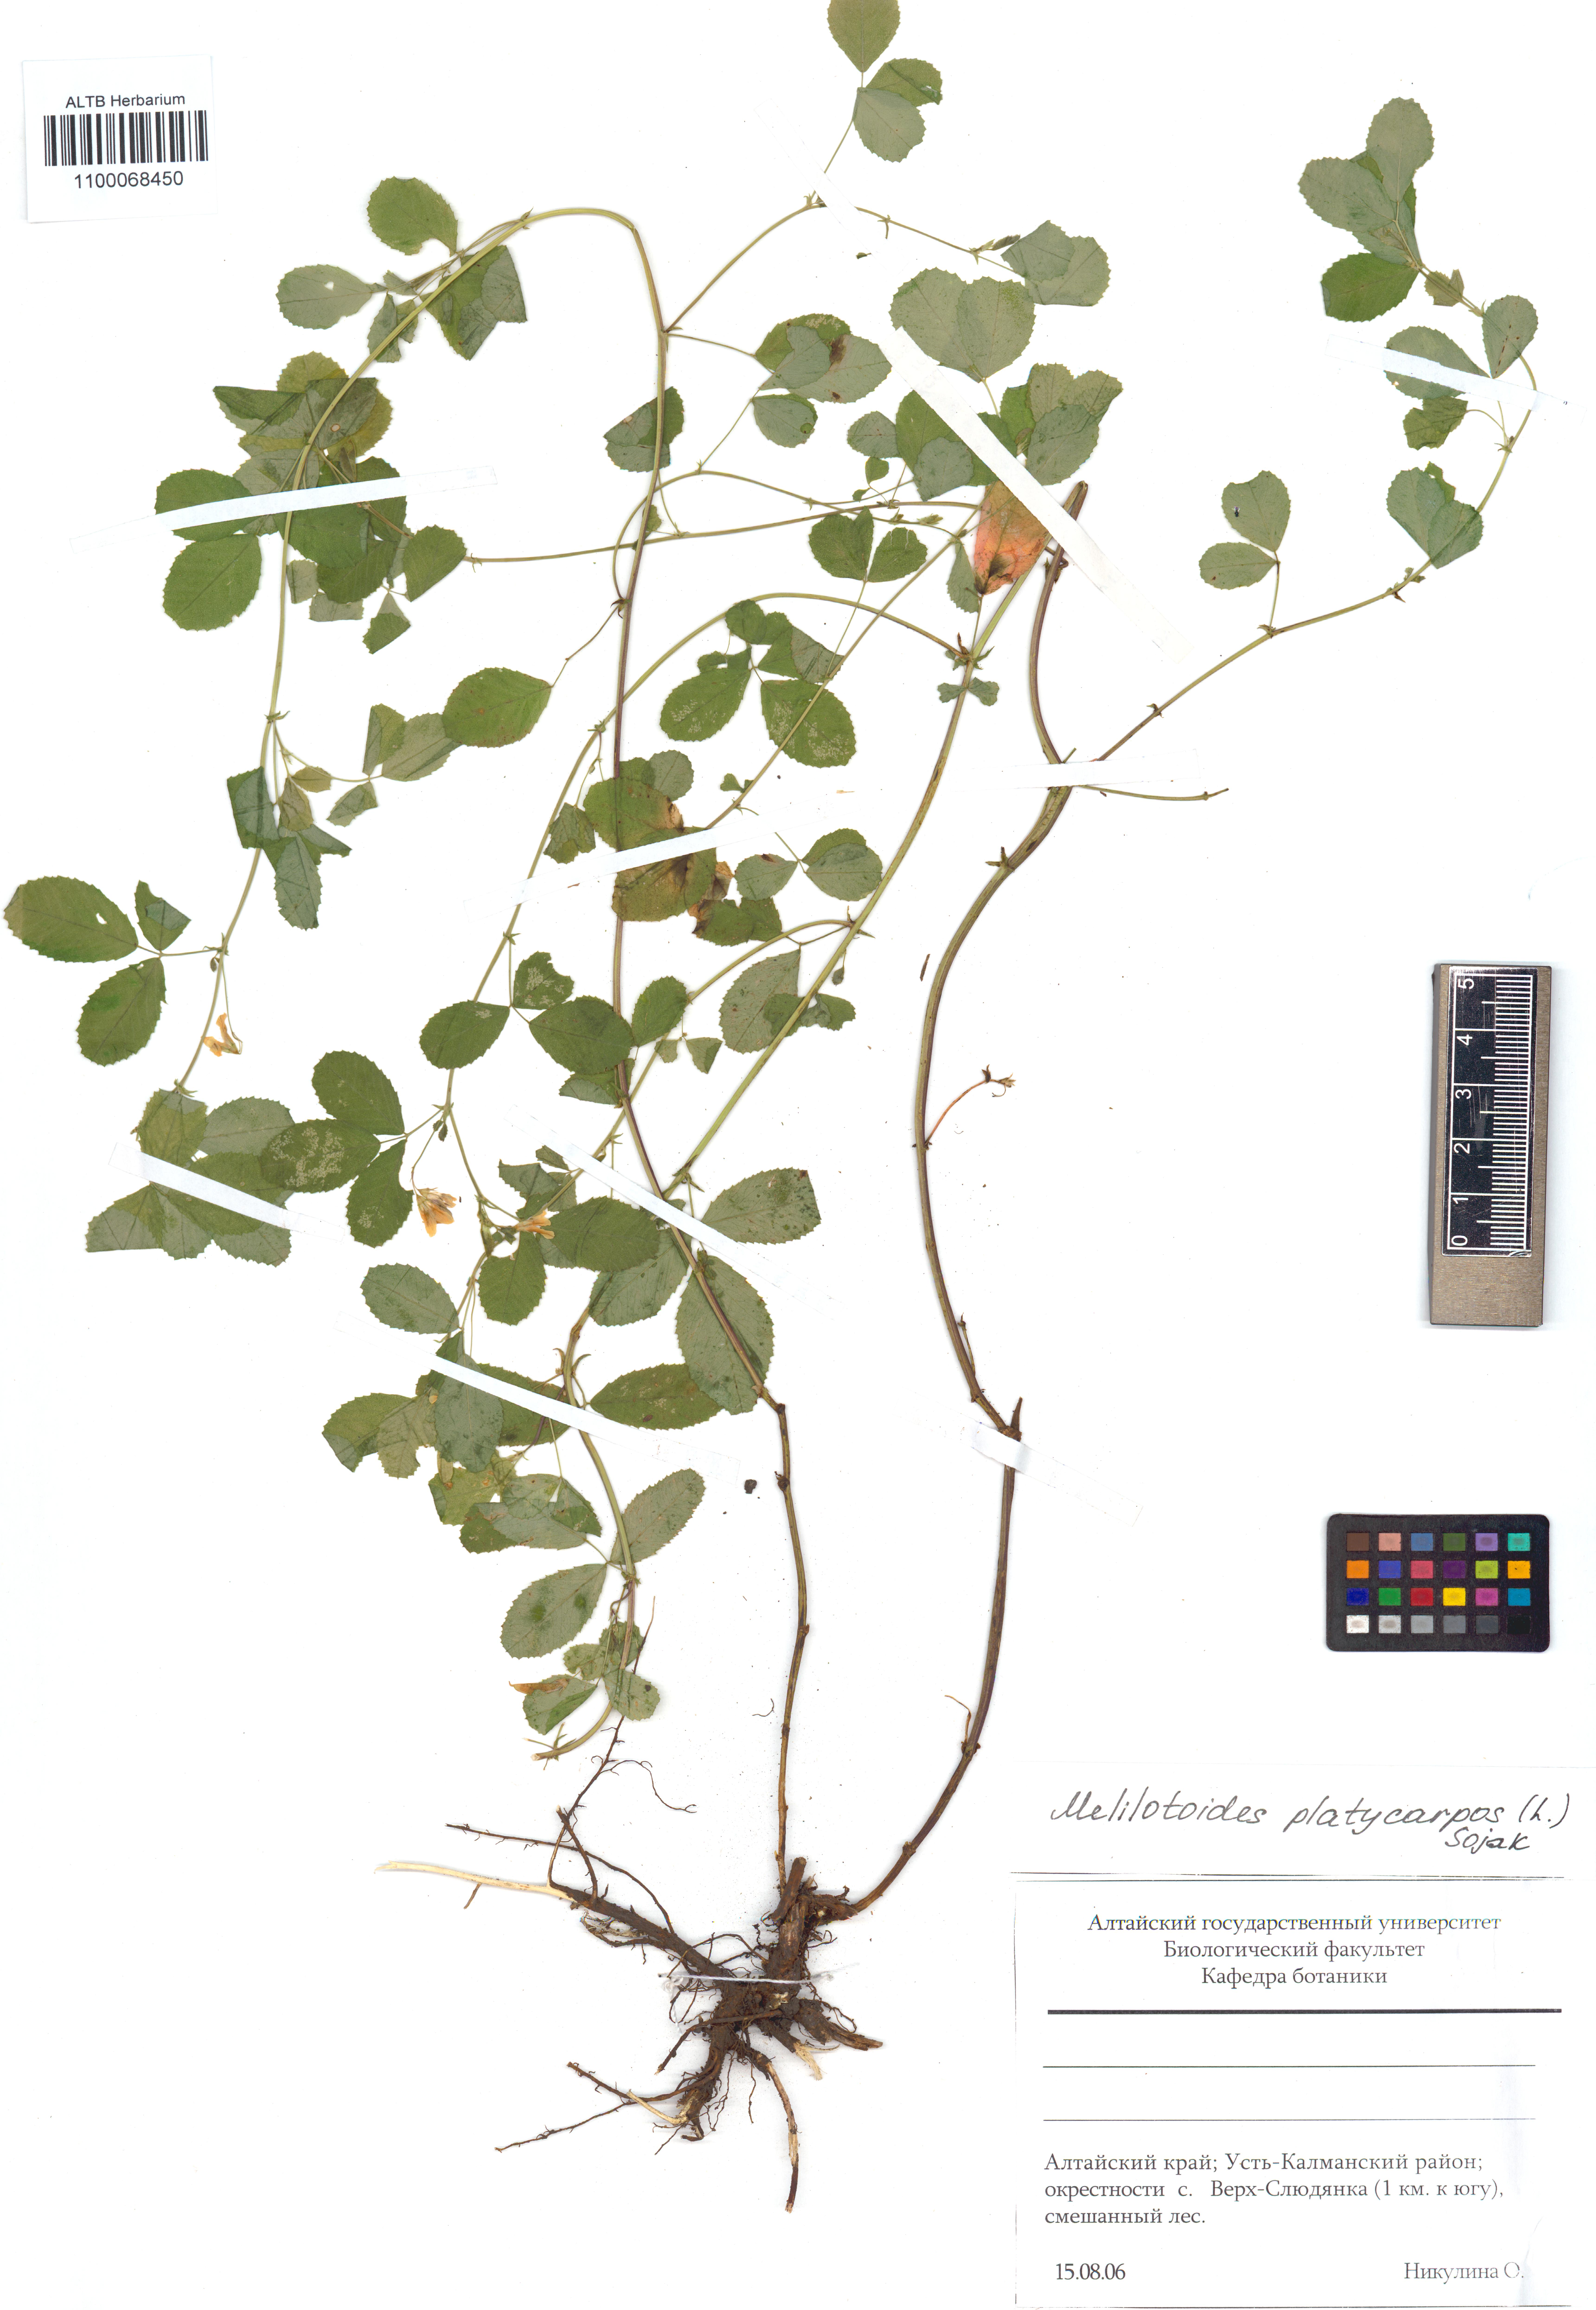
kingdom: Plantae
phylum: Tracheophyta
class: Magnoliopsida
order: Fabales
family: Fabaceae
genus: Medicago
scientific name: Medicago platycarpos
